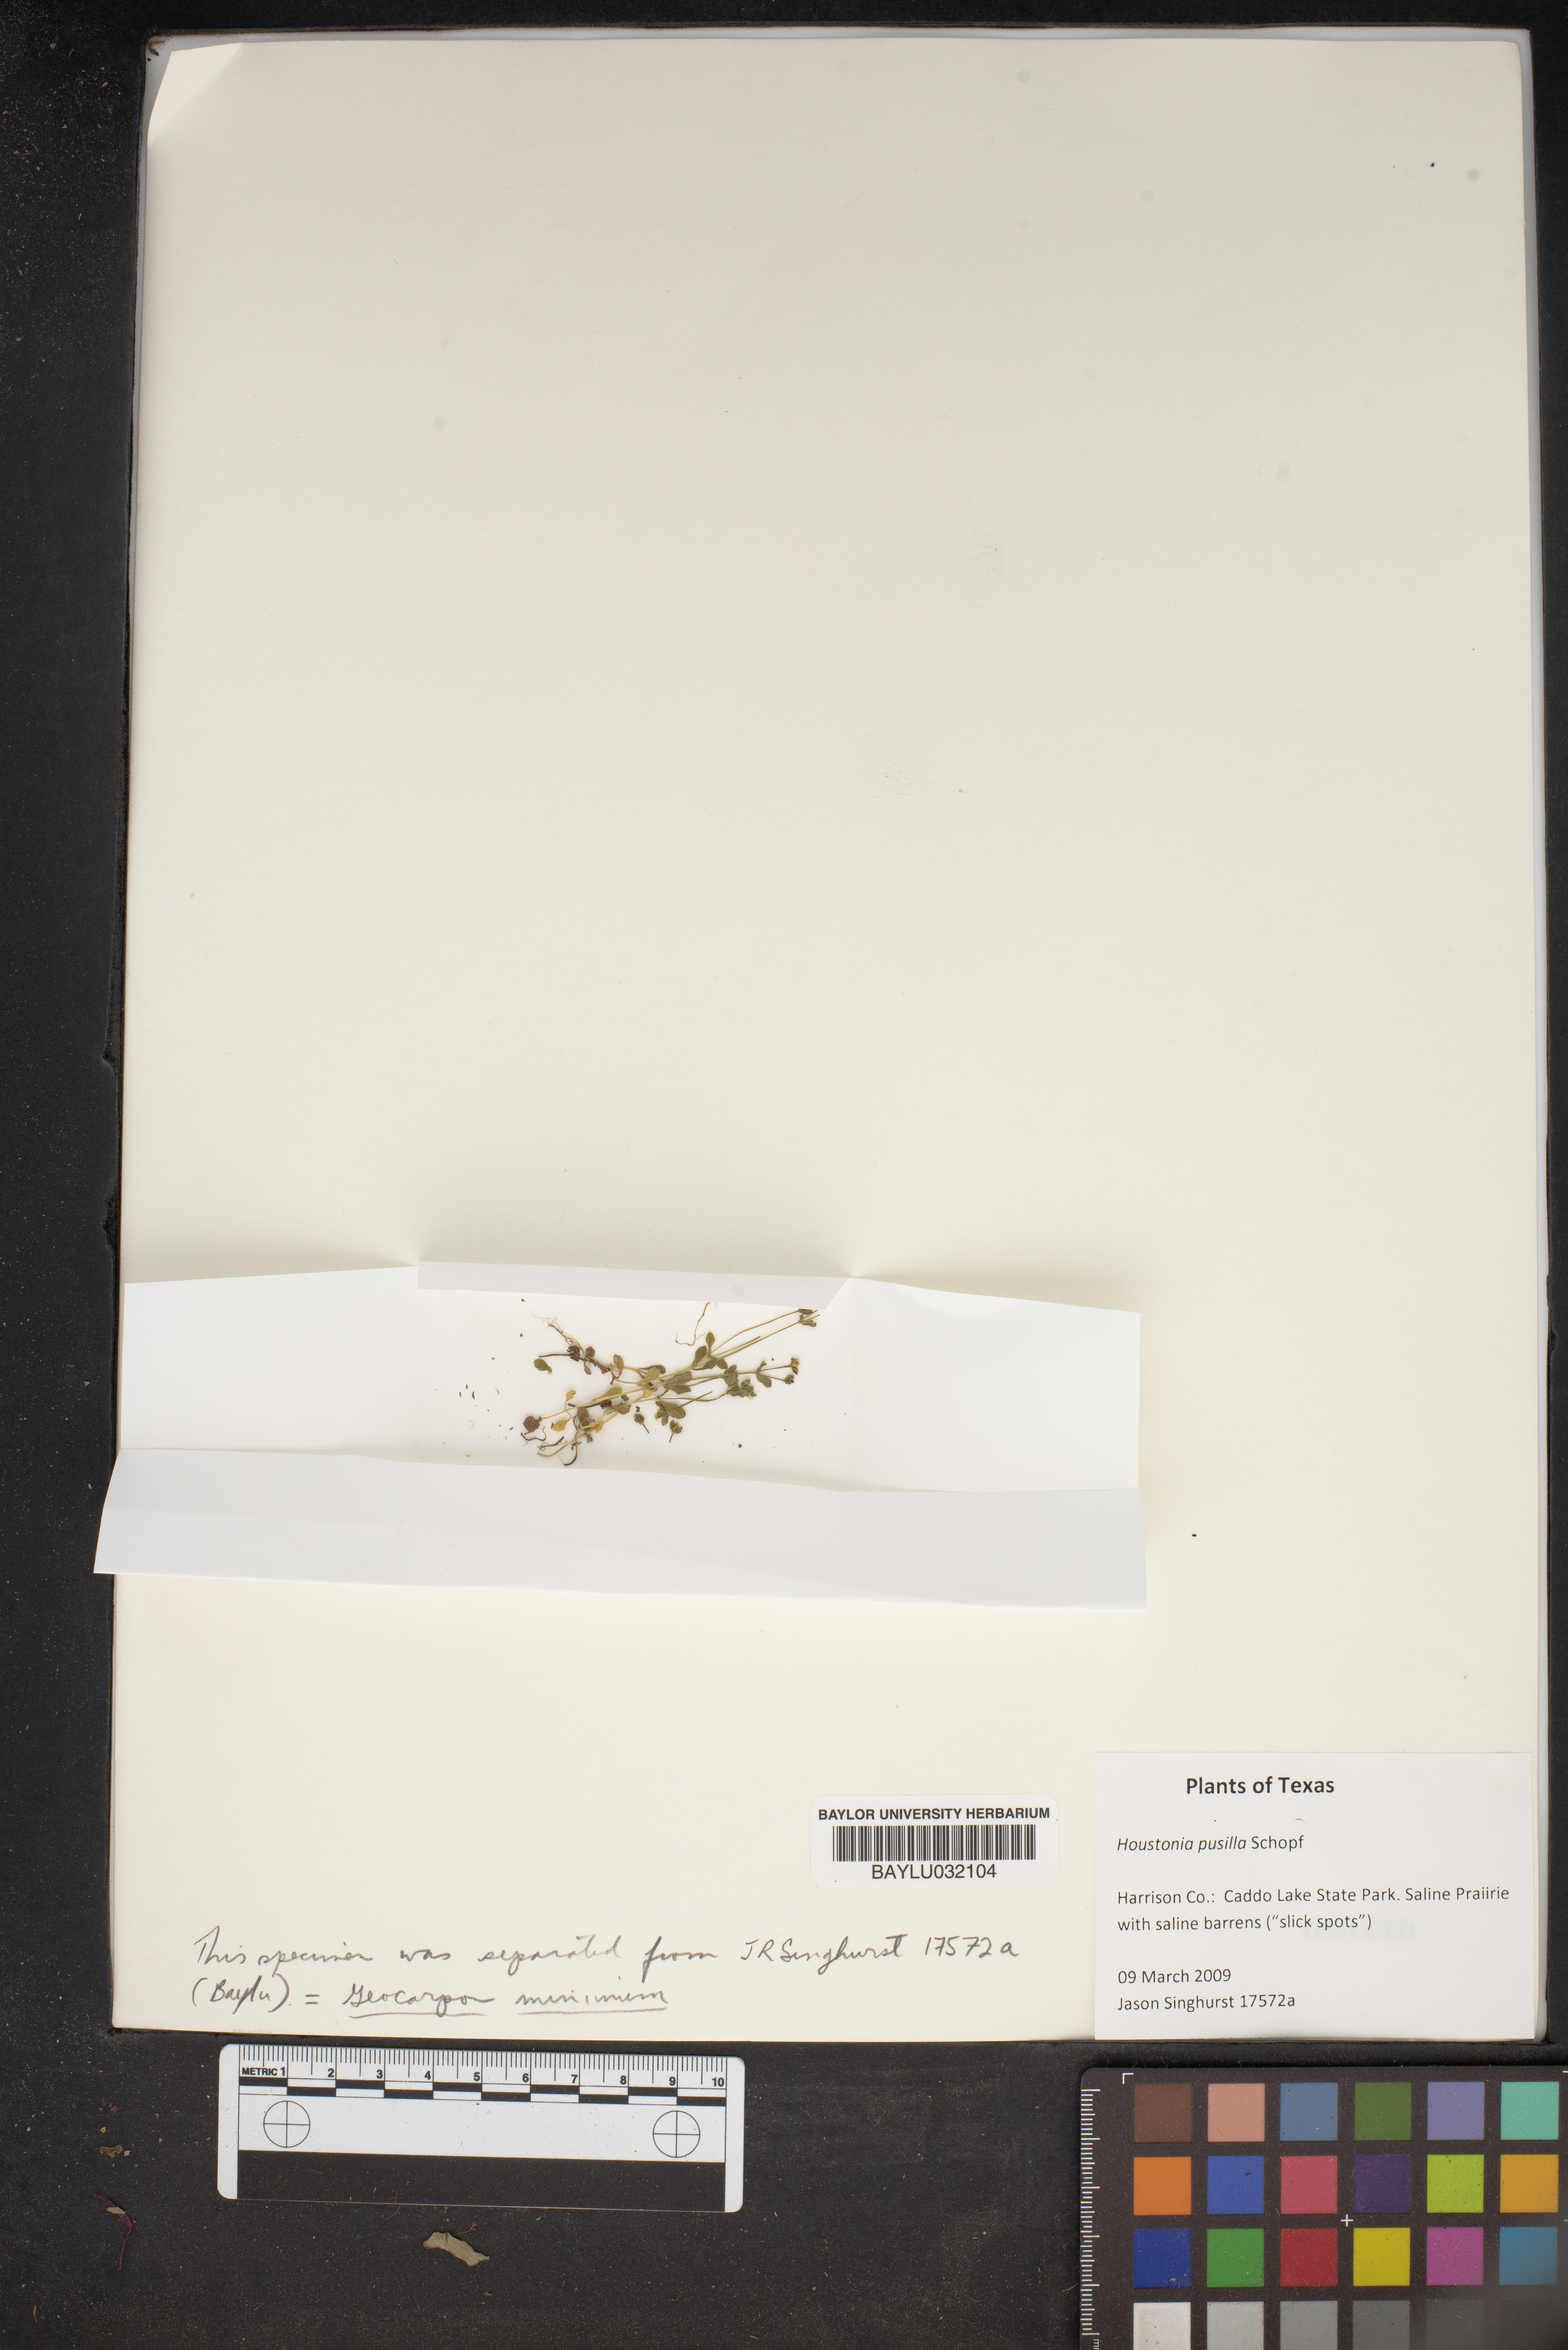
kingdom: Plantae
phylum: Tracheophyta
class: Magnoliopsida
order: Gentianales
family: Rubiaceae
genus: Houstonia
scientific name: Houstonia pusilla
